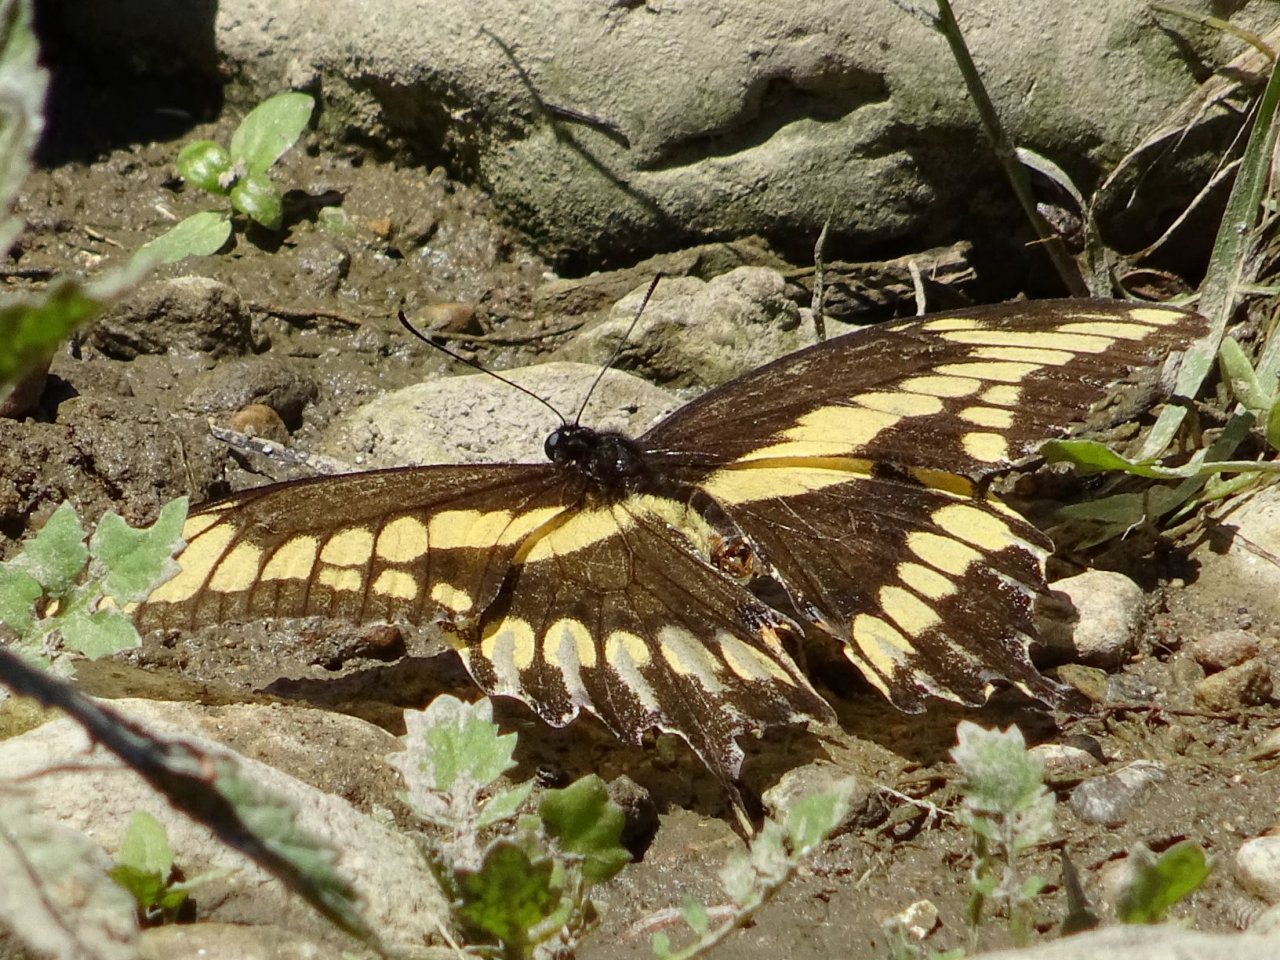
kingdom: Animalia
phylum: Arthropoda
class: Insecta
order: Lepidoptera
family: Papilionidae
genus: Papilio
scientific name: Papilio cresphontes
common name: Eastern Giant Swallowtail
